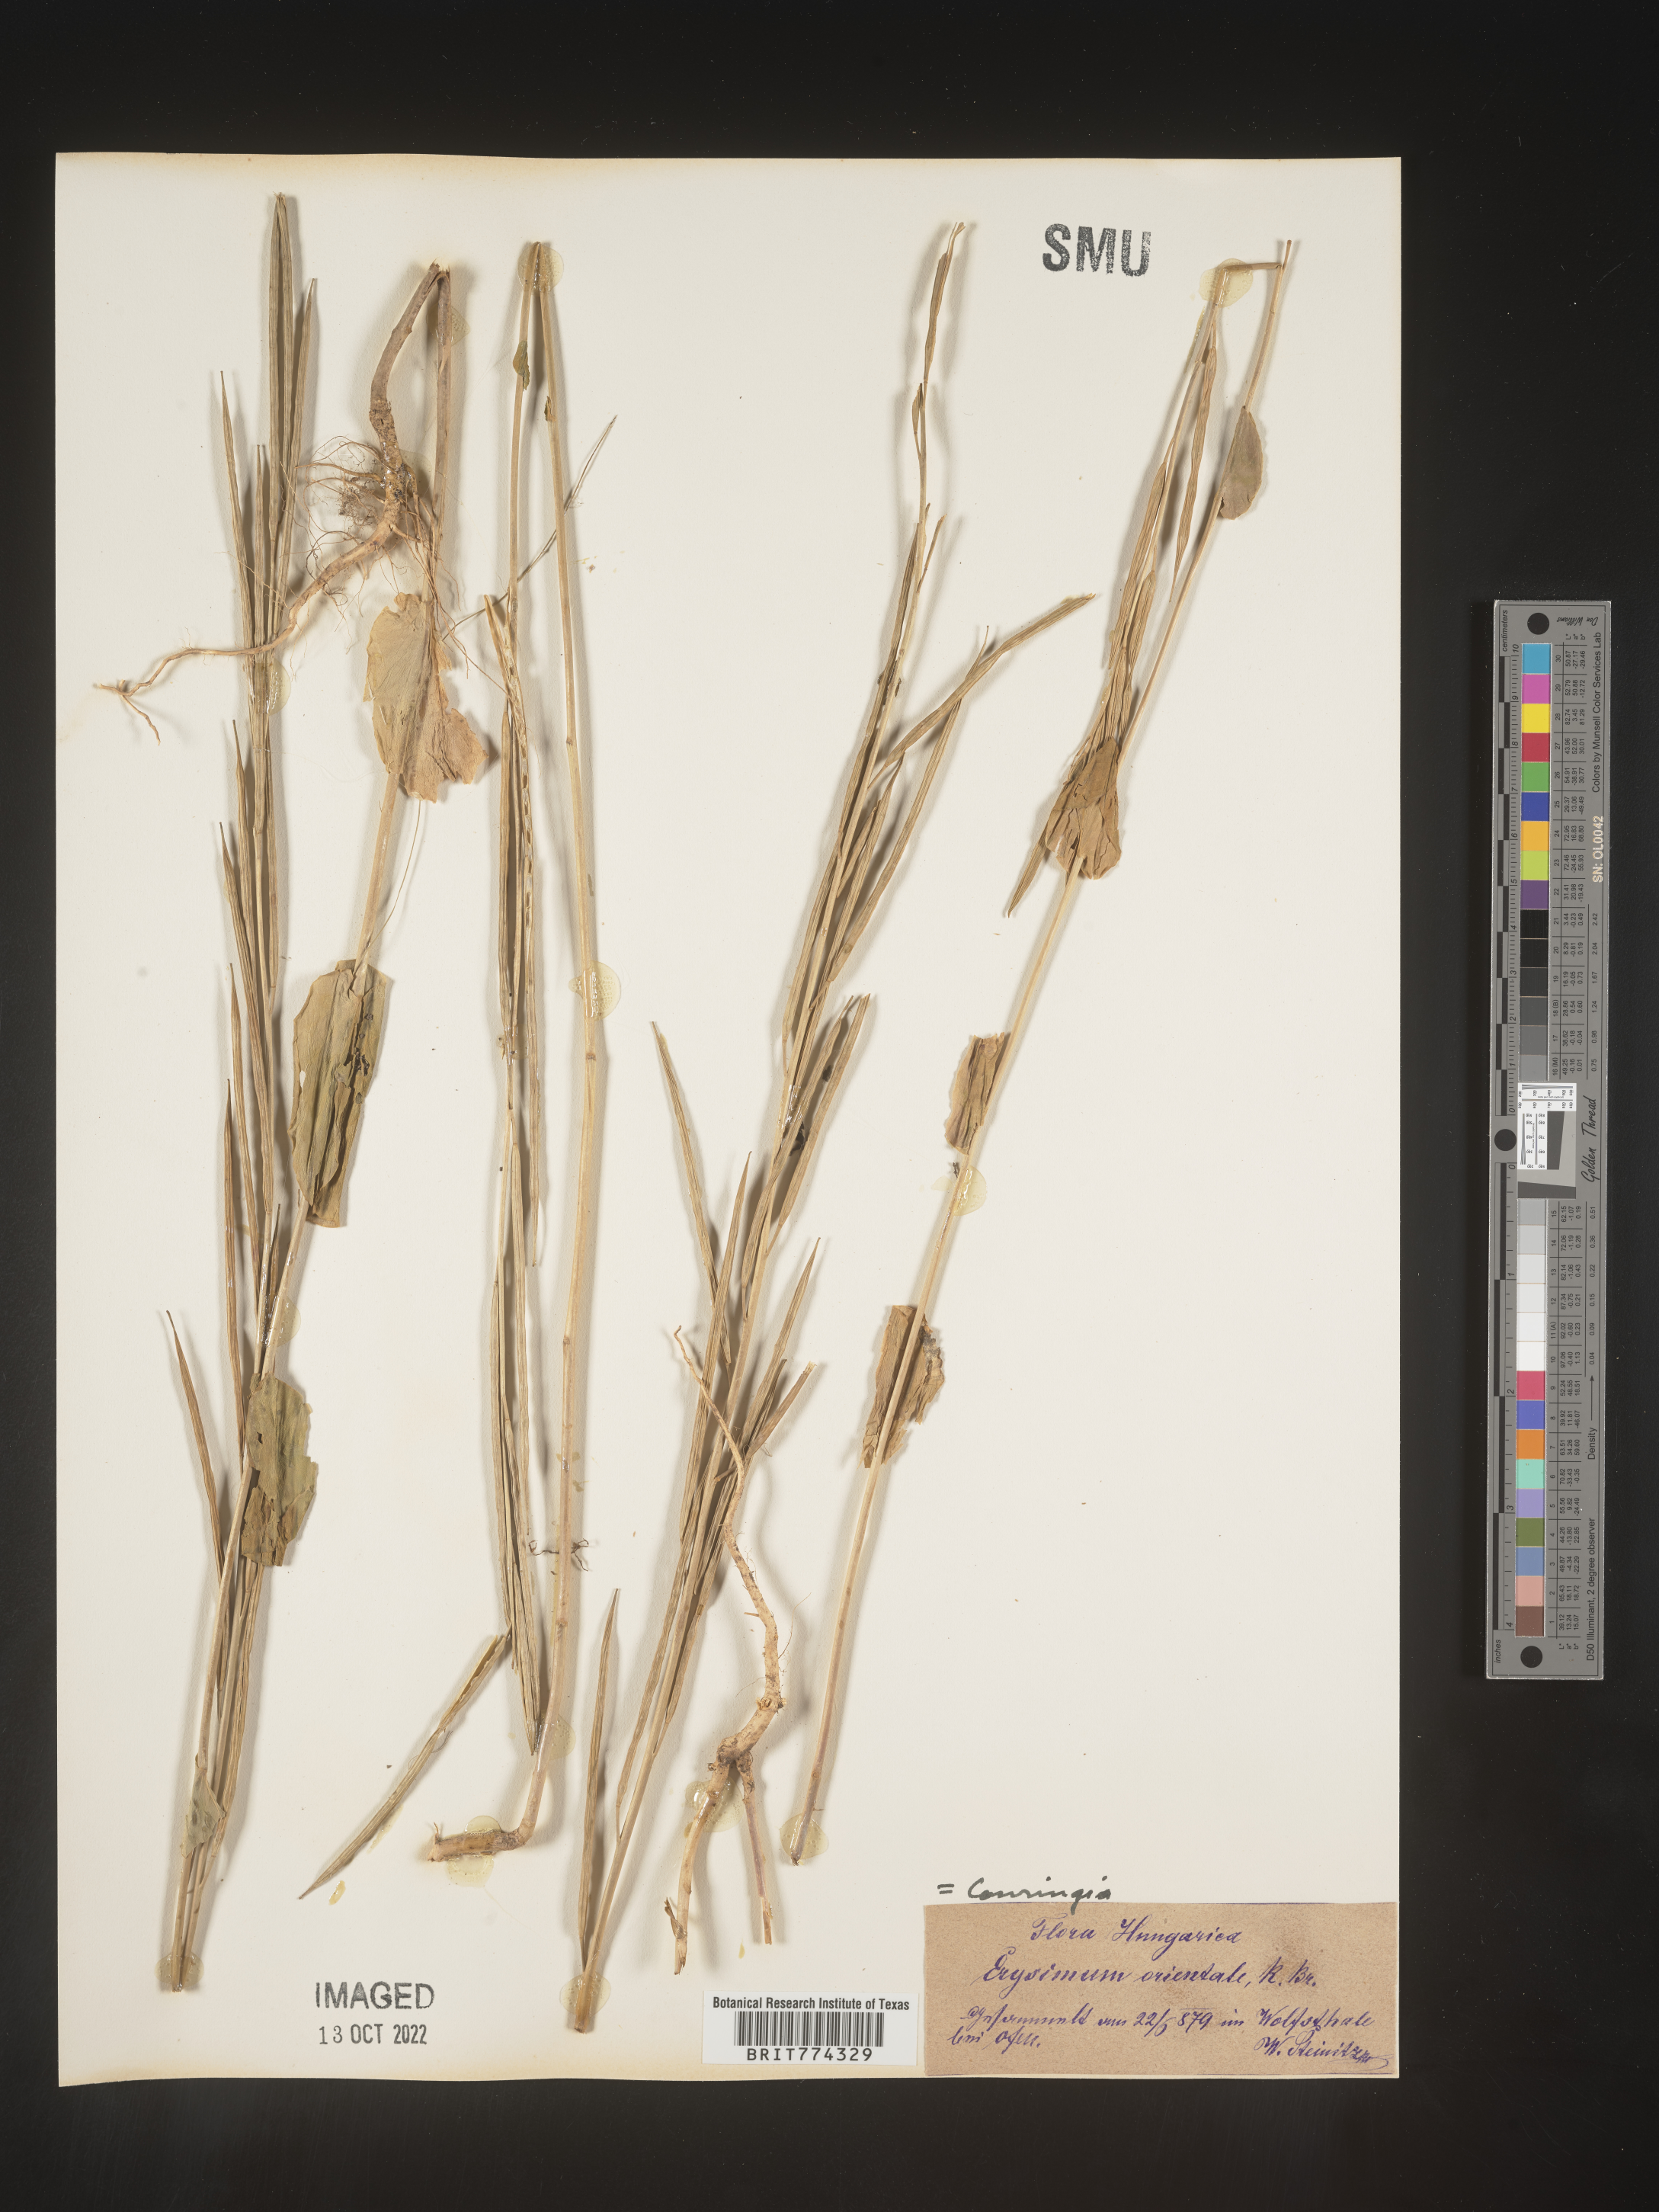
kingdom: Plantae
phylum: Tracheophyta
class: Magnoliopsida
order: Brassicales
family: Brassicaceae
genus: Conringia
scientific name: Conringia
